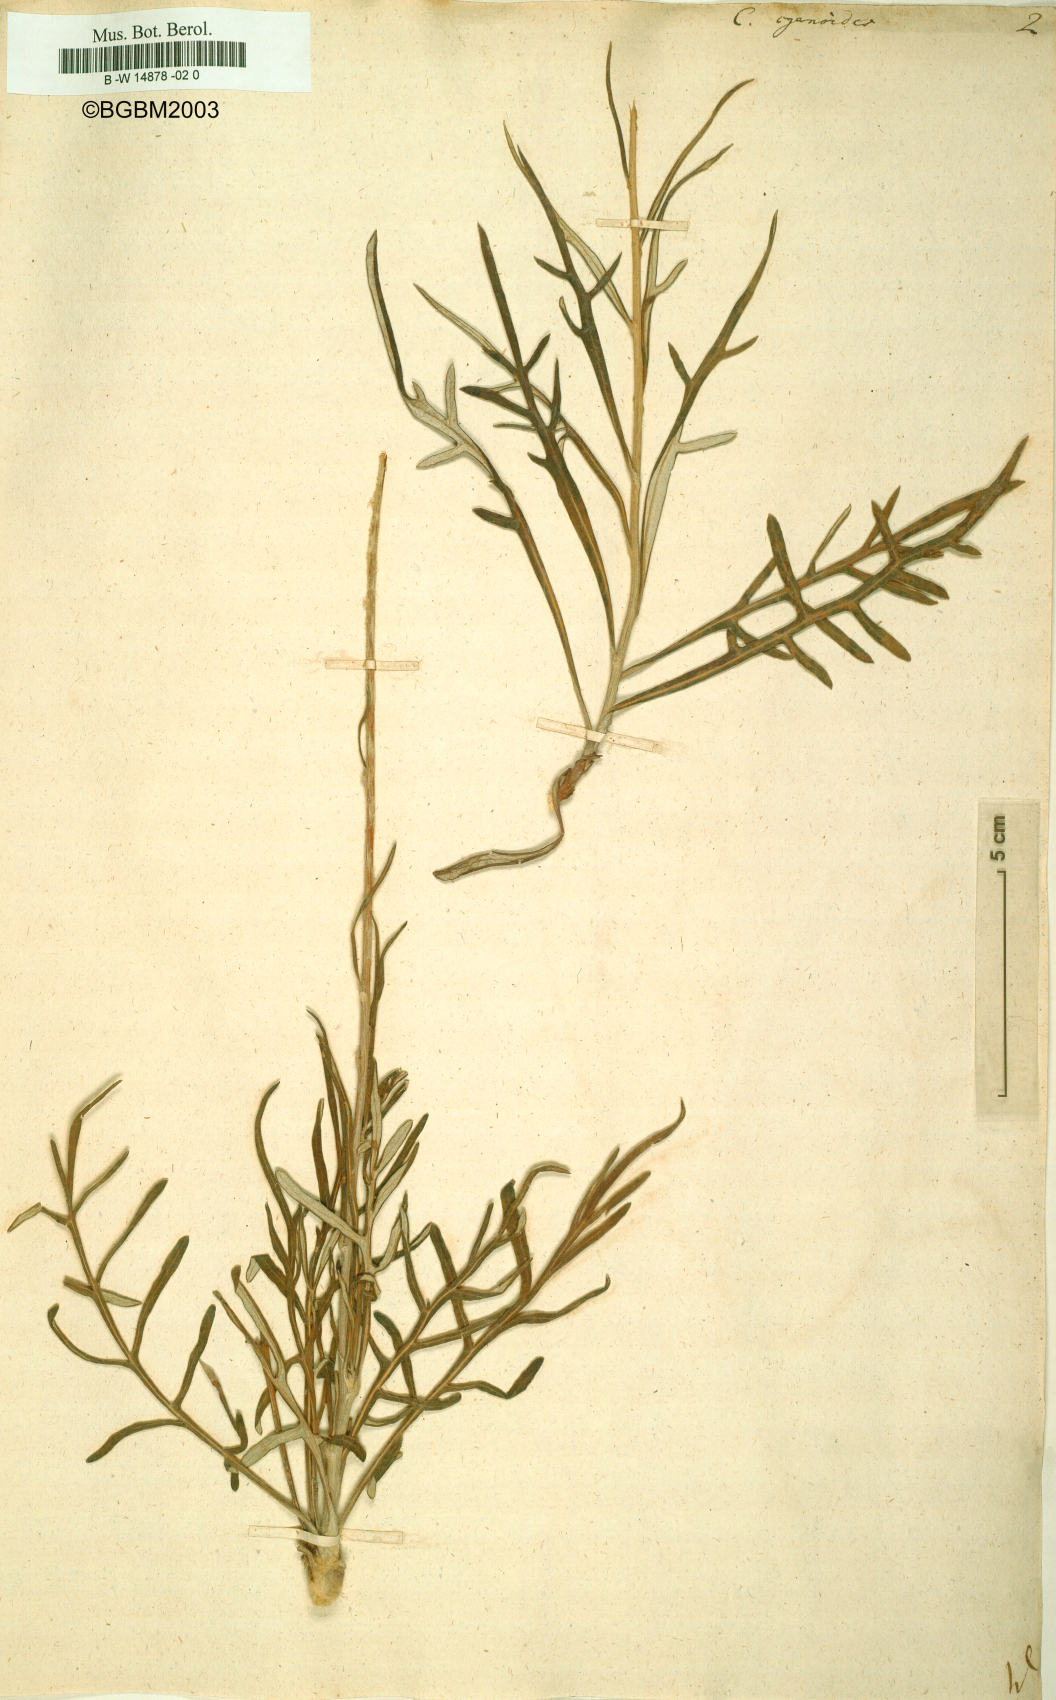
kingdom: Plantae
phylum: Tracheophyta
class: Magnoliopsida
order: Asterales
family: Asteraceae
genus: Jurinea
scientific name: Jurinea
